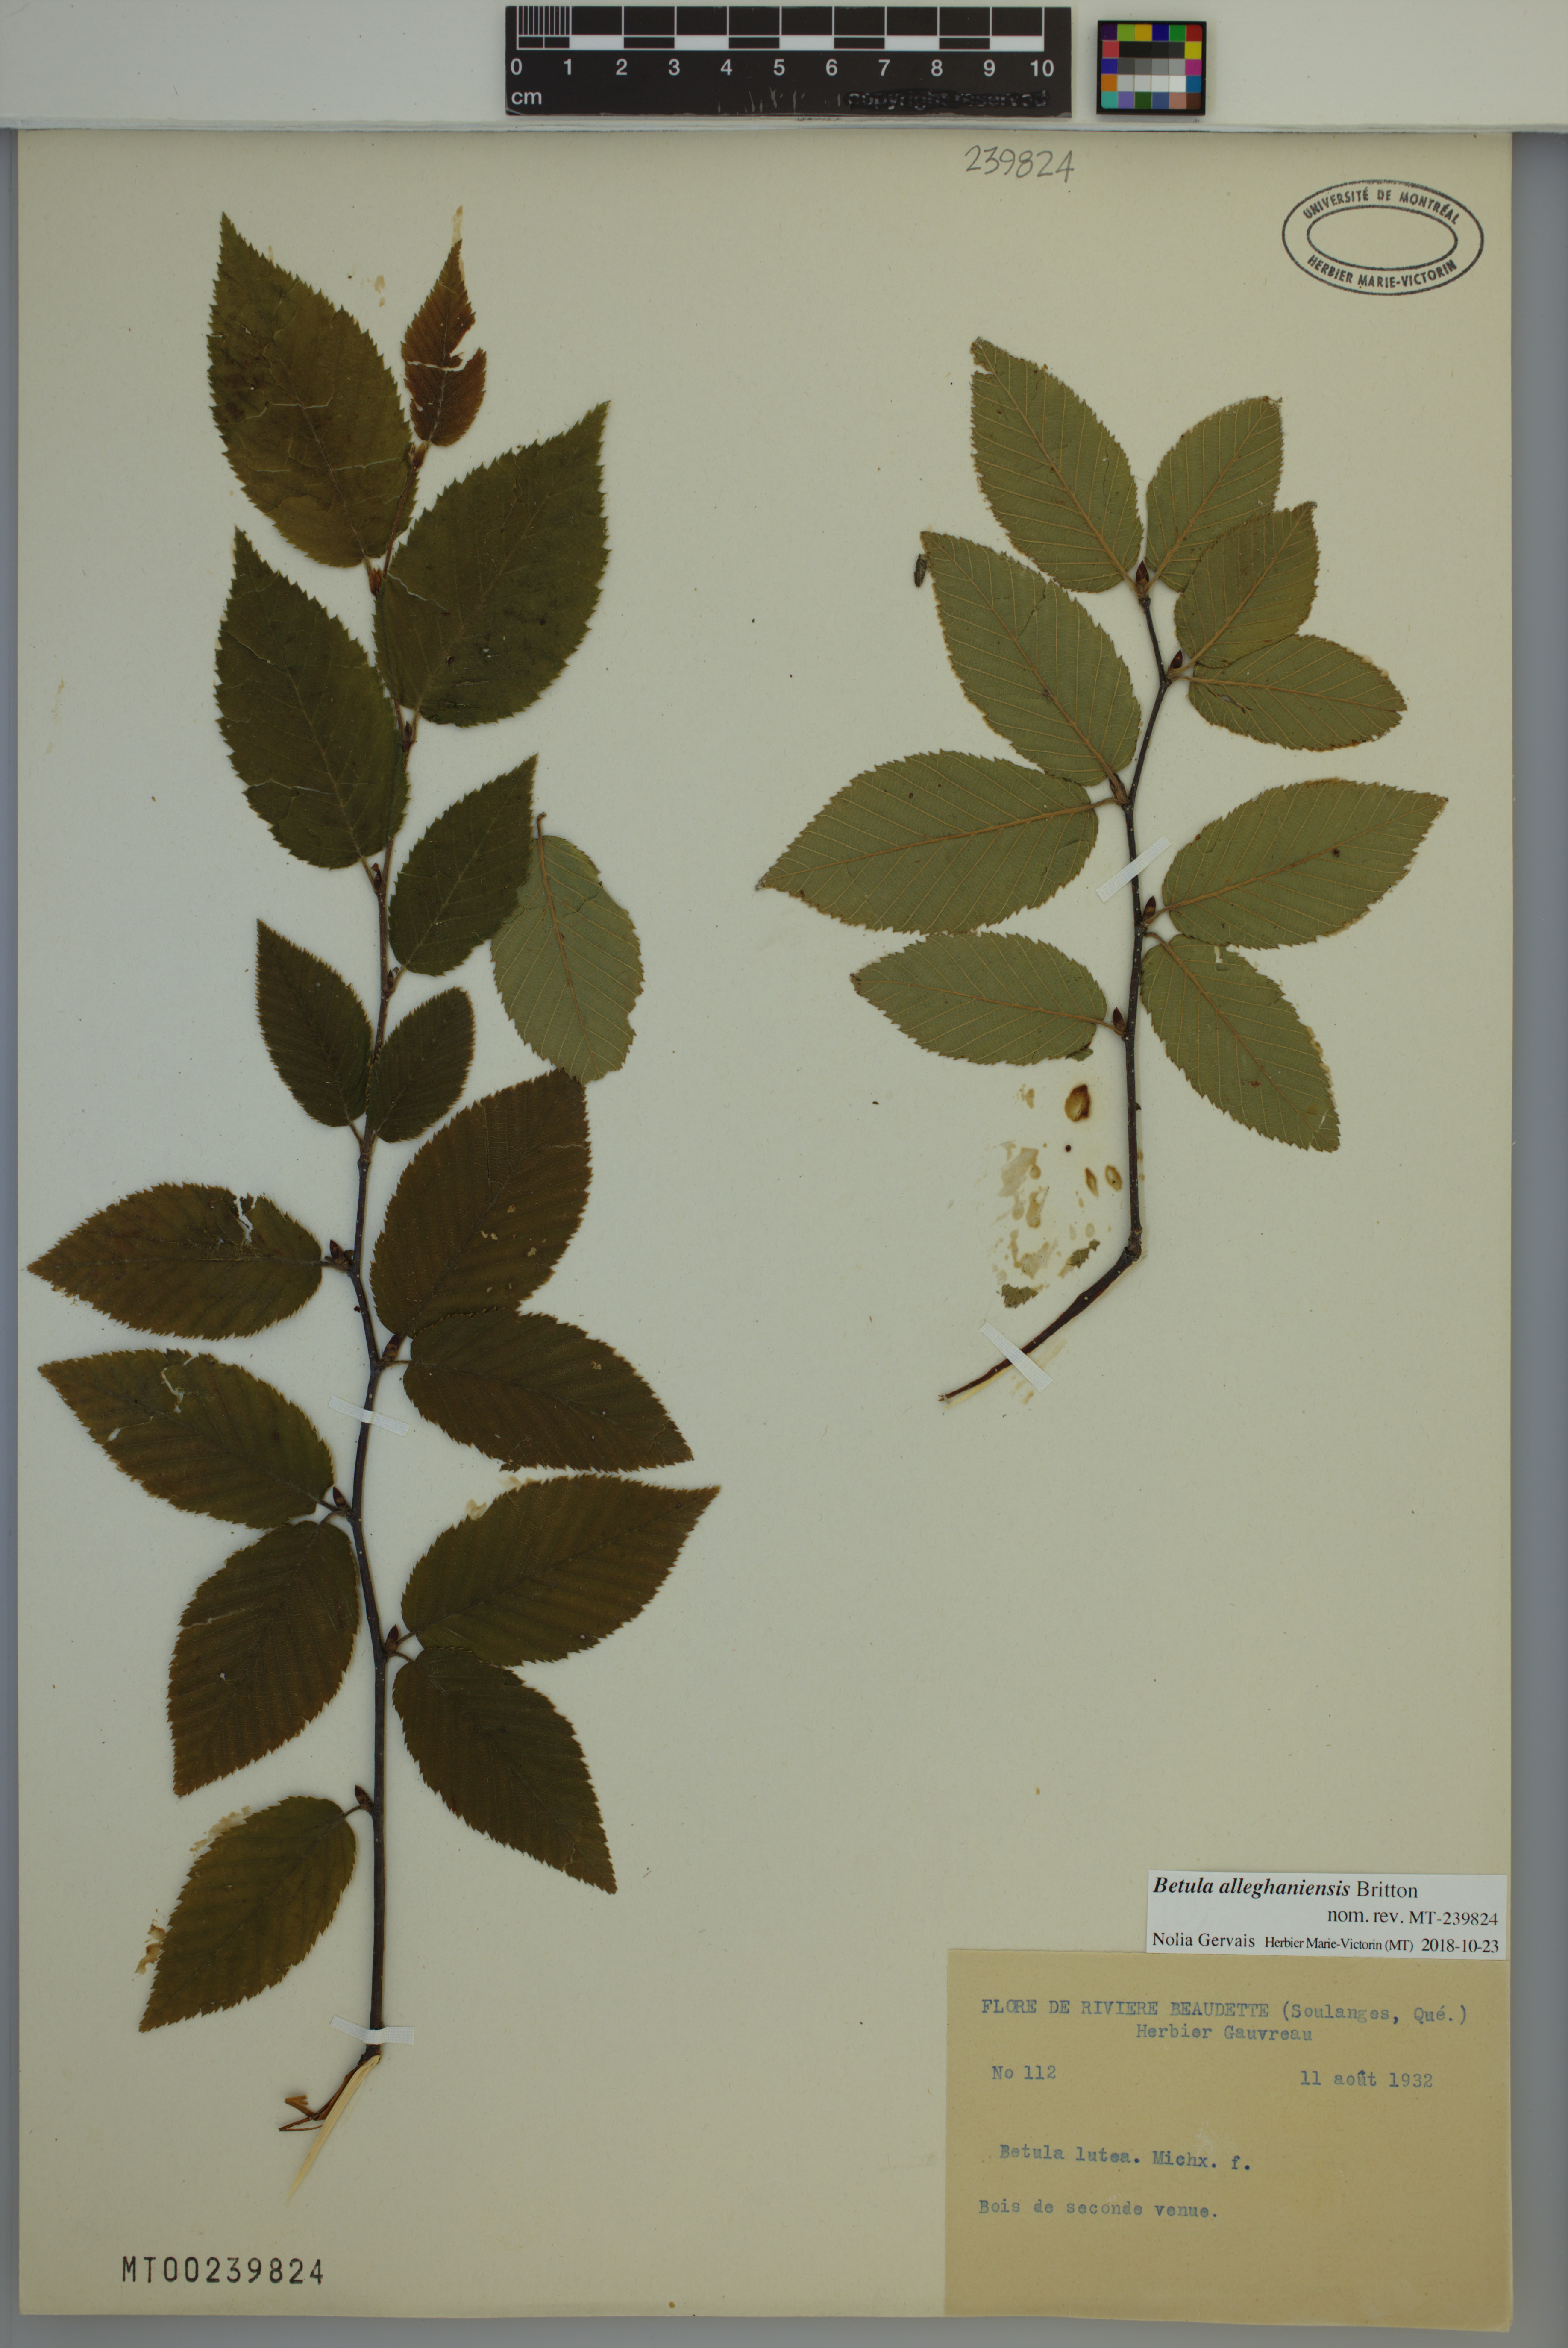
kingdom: Plantae
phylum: Tracheophyta
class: Magnoliopsida
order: Fagales
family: Betulaceae
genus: Betula
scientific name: Betula alleghaniensis
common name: Yellow birch
